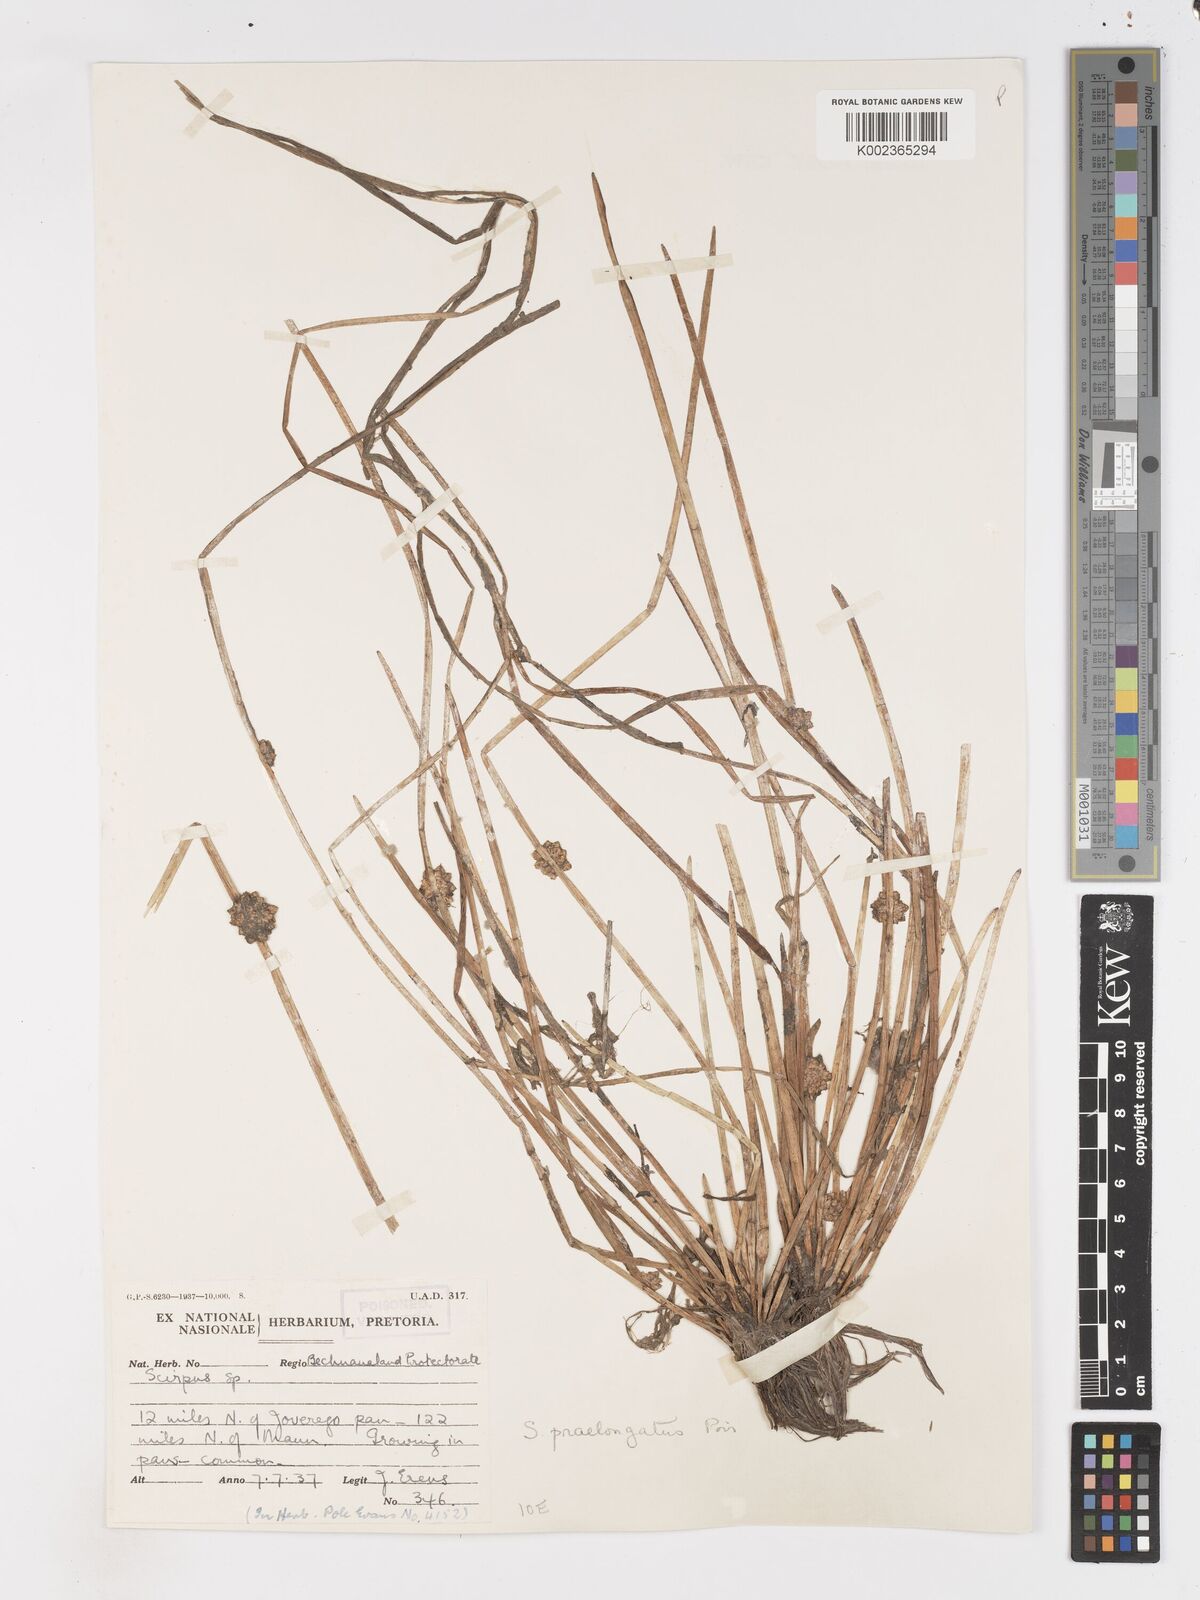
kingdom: Plantae
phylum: Tracheophyta
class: Liliopsida
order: Poales
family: Cyperaceae
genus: Schoenoplectiella
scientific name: Schoenoplectiella senegalensis
